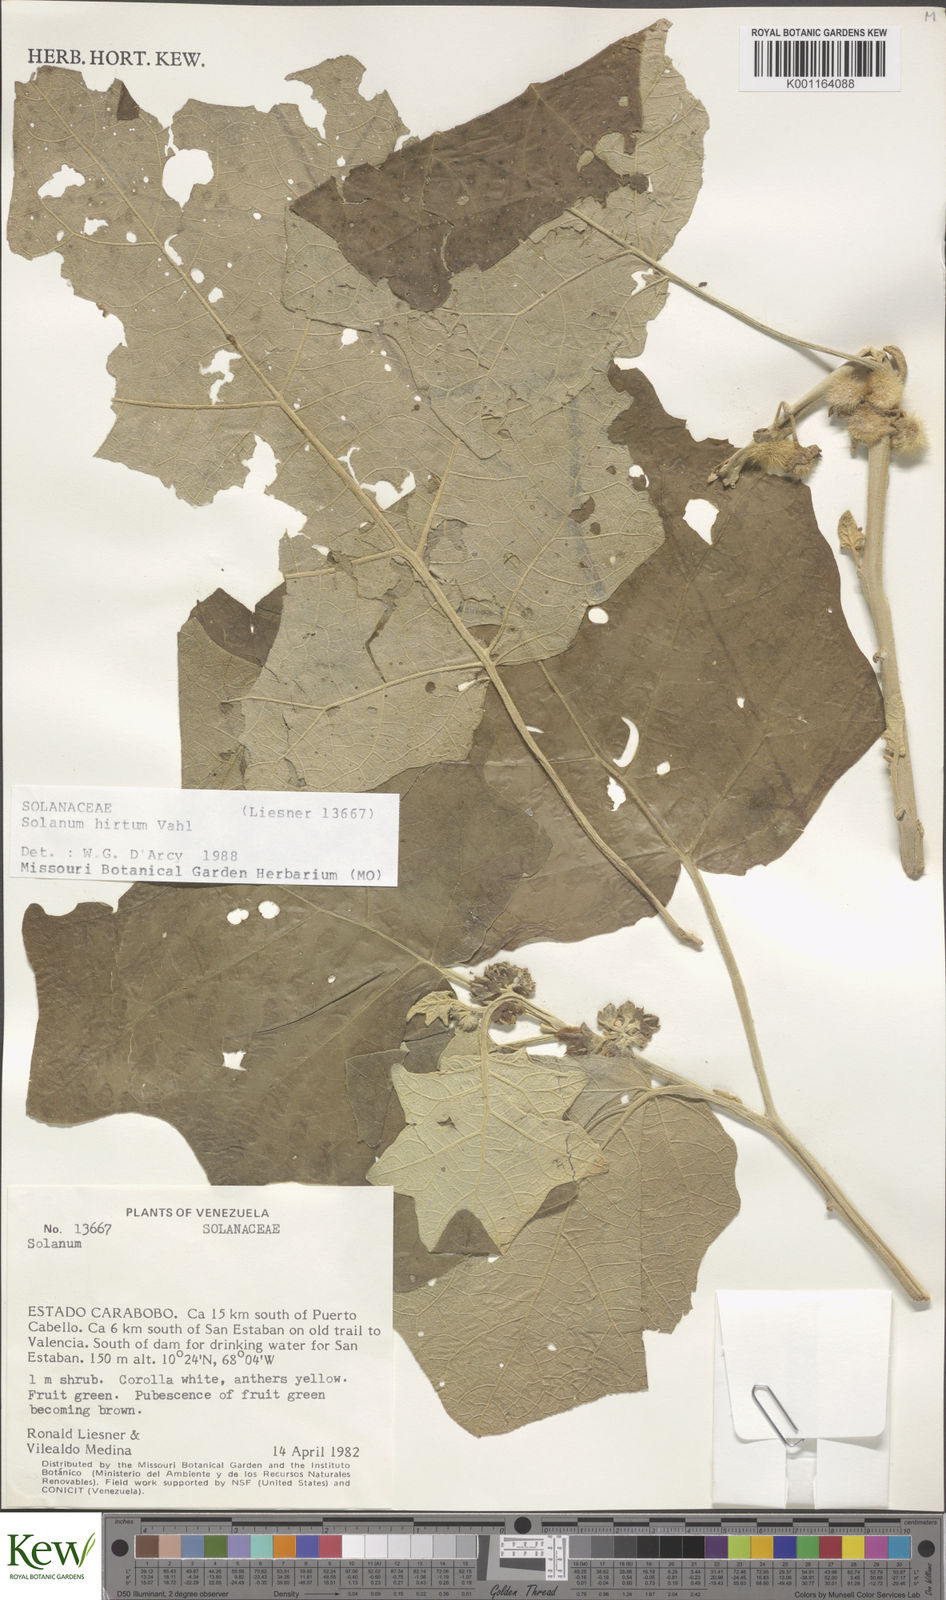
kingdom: Plantae
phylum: Tracheophyta
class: Magnoliopsida
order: Solanales
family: Solanaceae
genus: Solanum
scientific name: Solanum hirtum
